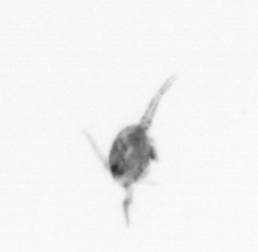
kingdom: Animalia
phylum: Arthropoda
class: Copepoda
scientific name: Copepoda
